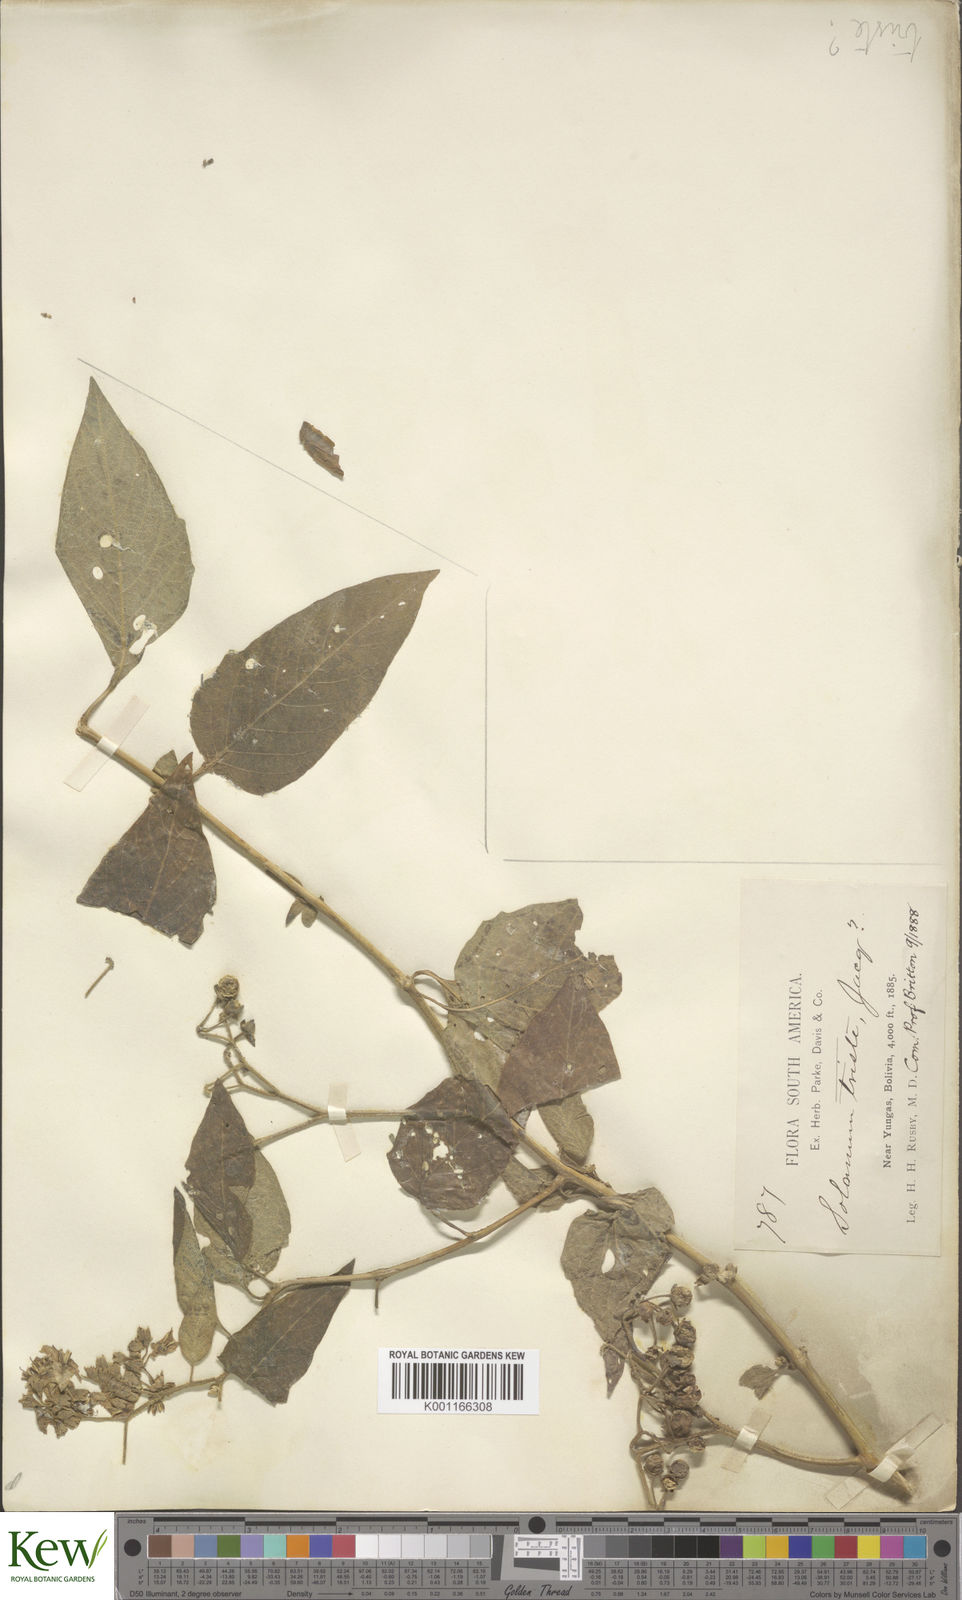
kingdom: Plantae
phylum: Tracheophyta
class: Magnoliopsida
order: Solanales
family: Solanaceae
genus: Solanum
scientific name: Solanum triste
